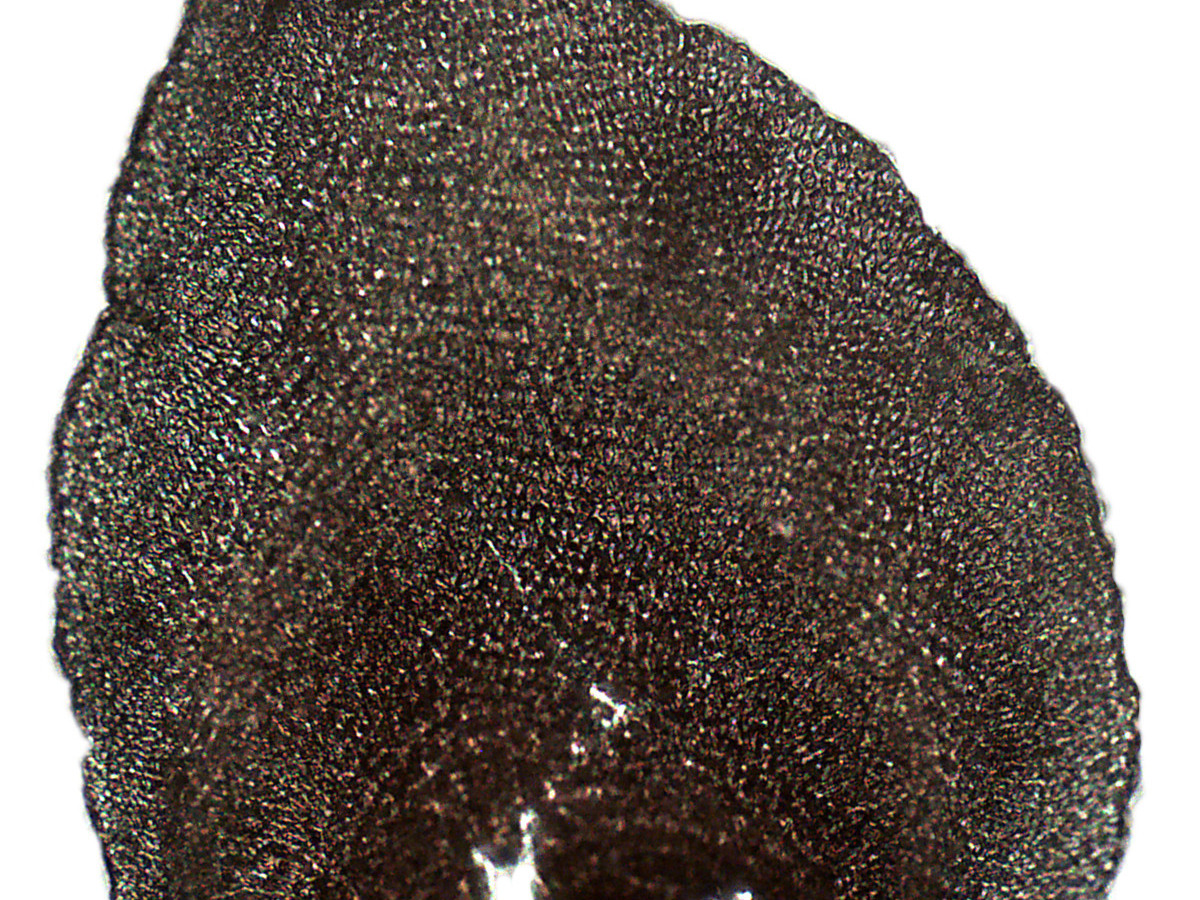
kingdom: Plantae
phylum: Marchantiophyta
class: Jungermanniopsida
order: Porellales
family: Frullaniaceae
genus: Frullania
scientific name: Frullania variegata
